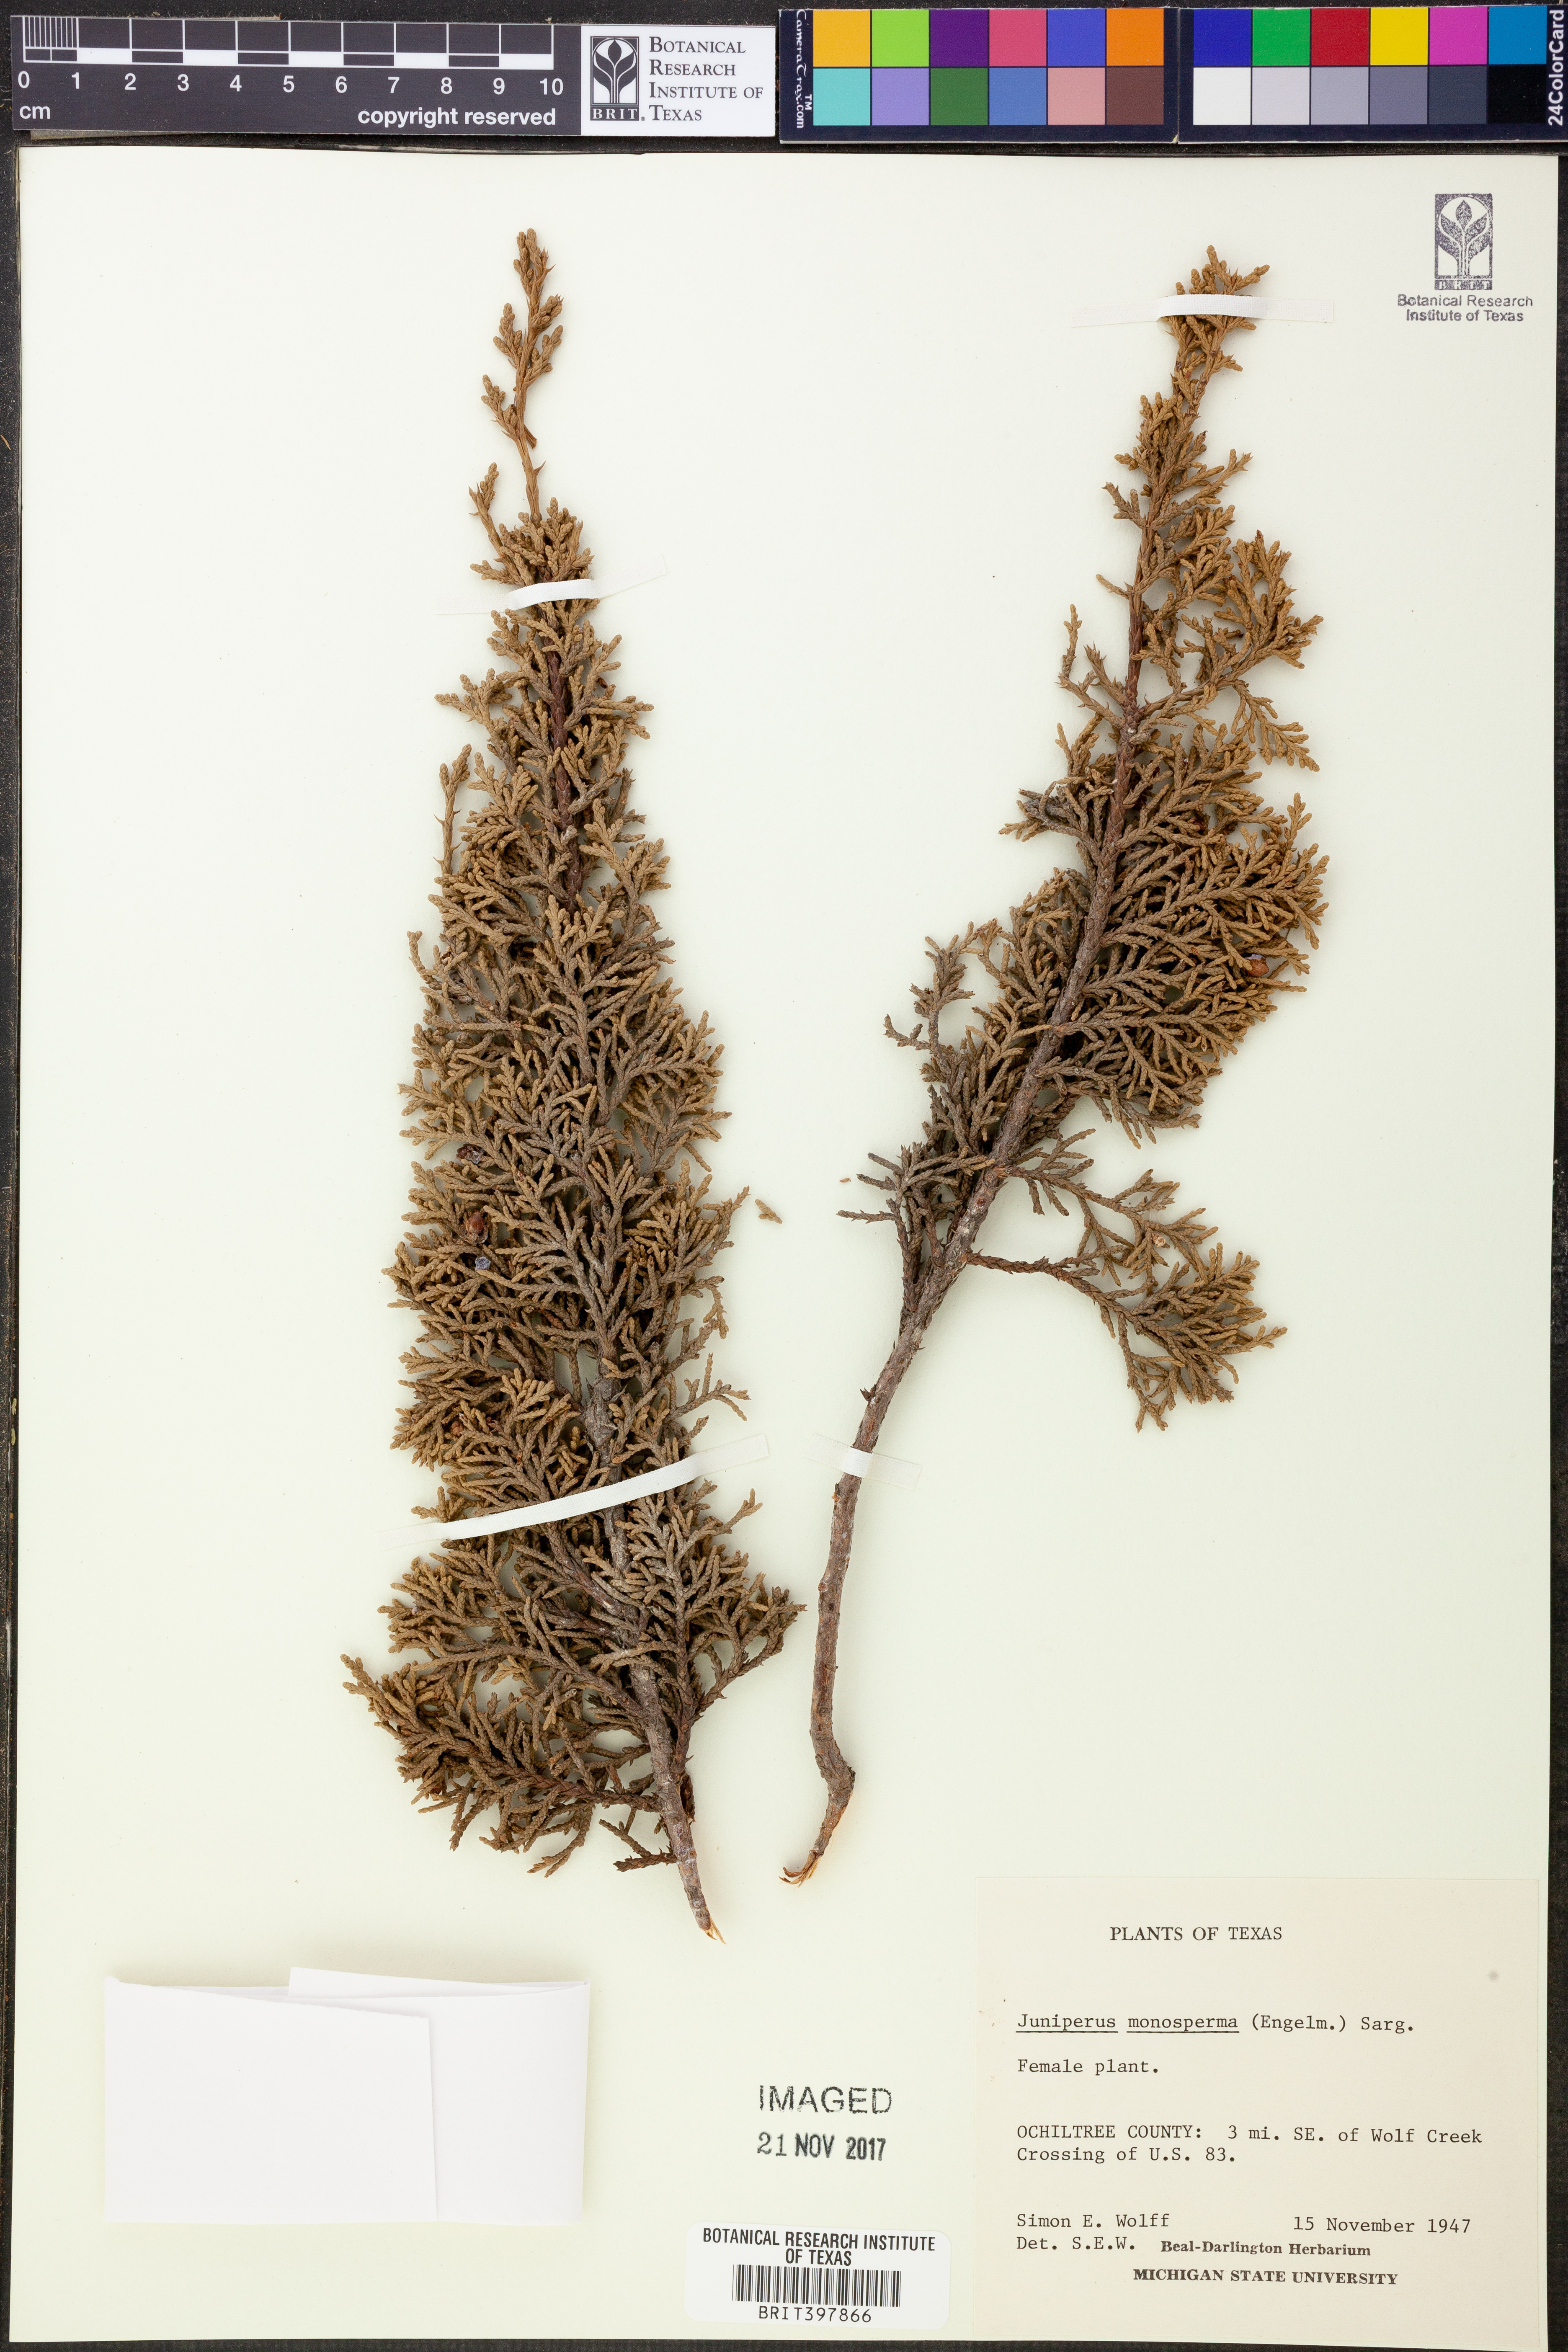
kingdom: Plantae
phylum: Tracheophyta
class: Pinopsida
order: Pinales
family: Cupressaceae
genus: Juniperus
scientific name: Juniperus monosperma
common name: One-seed juniper
